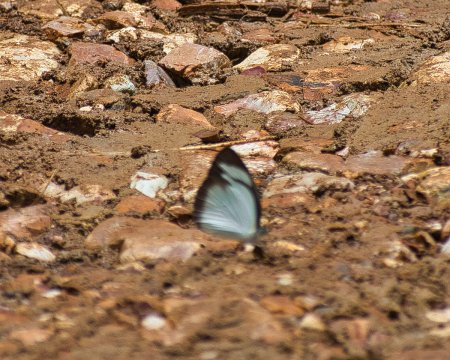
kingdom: Animalia
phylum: Arthropoda
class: Insecta
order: Lepidoptera
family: Pieridae
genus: Itaballia
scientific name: Itaballia demophile
